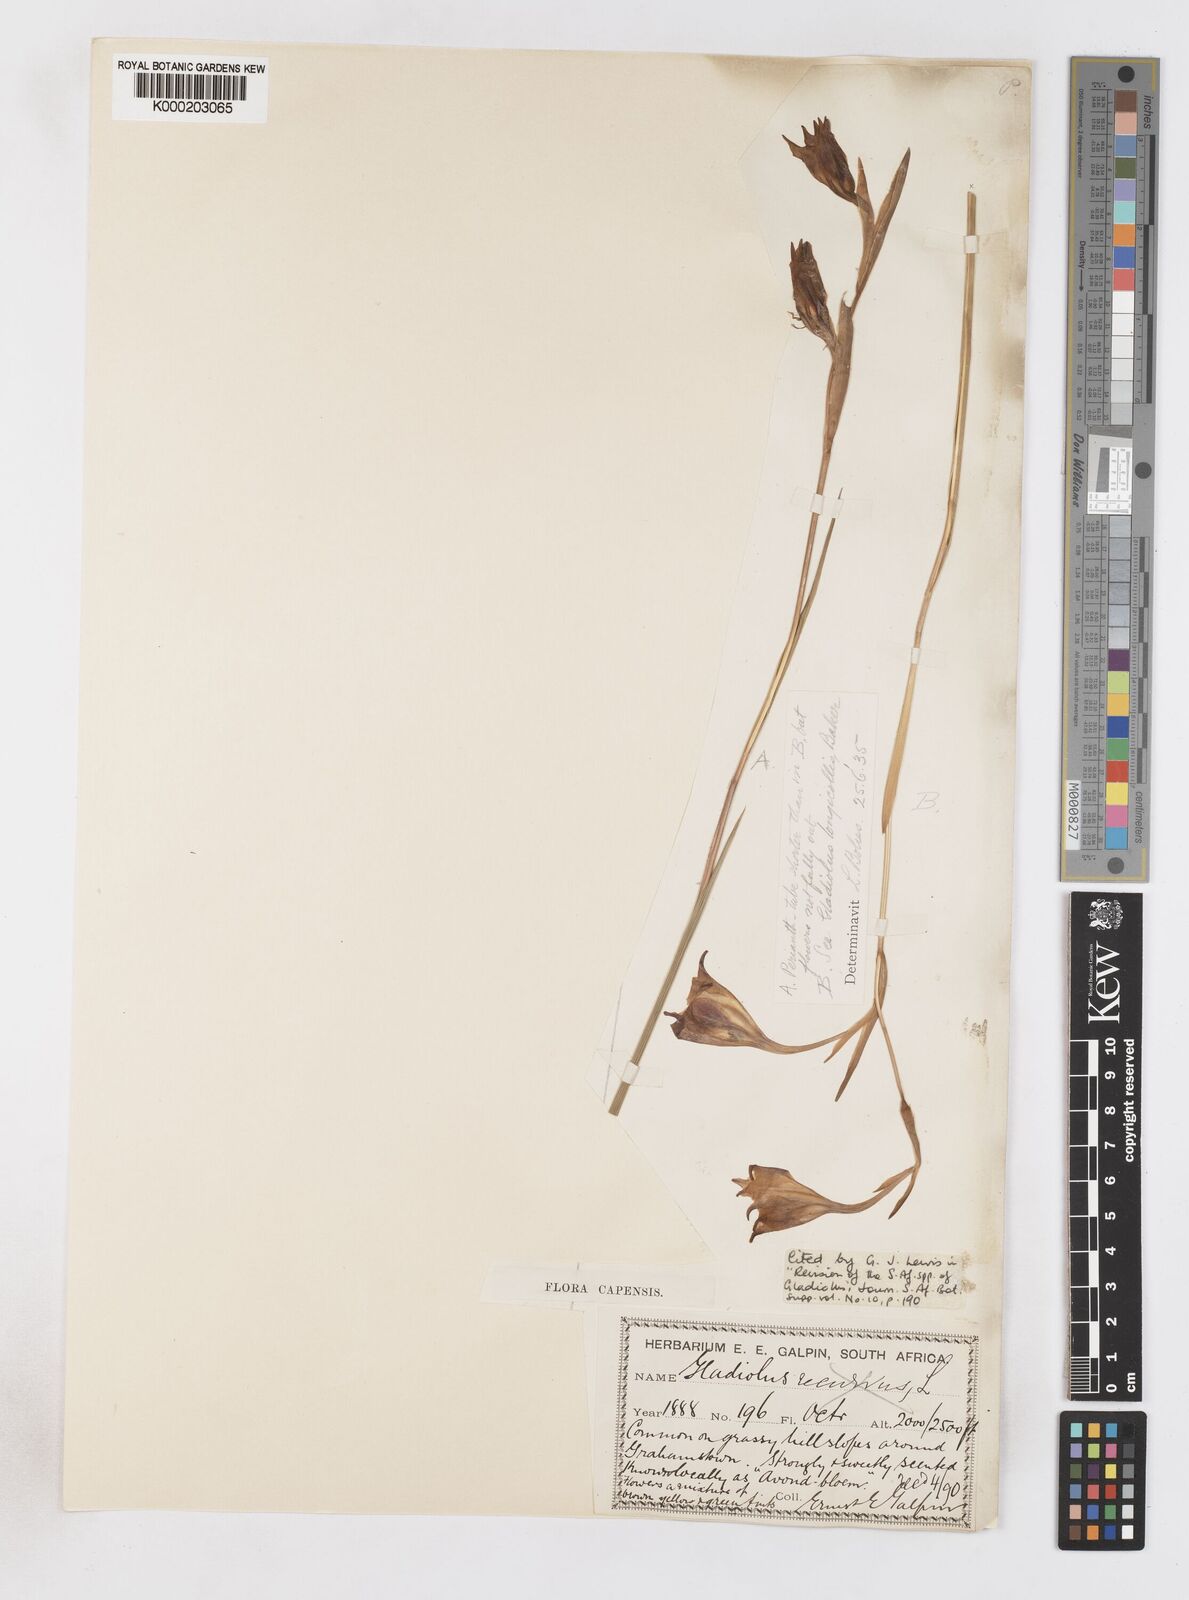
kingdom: Plantae
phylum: Tracheophyta
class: Liliopsida
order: Asparagales
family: Iridaceae
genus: Gladiolus
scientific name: Gladiolus longicollis
